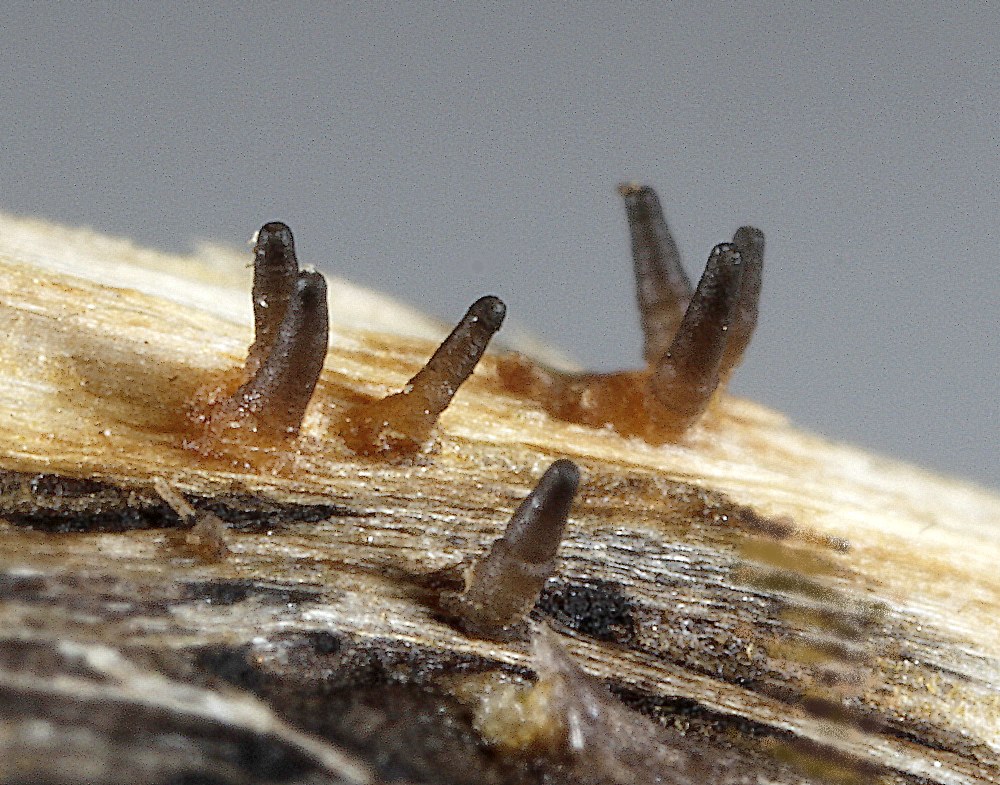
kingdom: Fungi
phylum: Ascomycota
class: Dothideomycetes
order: Acrospermales
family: Acrospermaceae
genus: Acrospermum
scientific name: Acrospermum compressum
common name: nælde-stængeltunge
